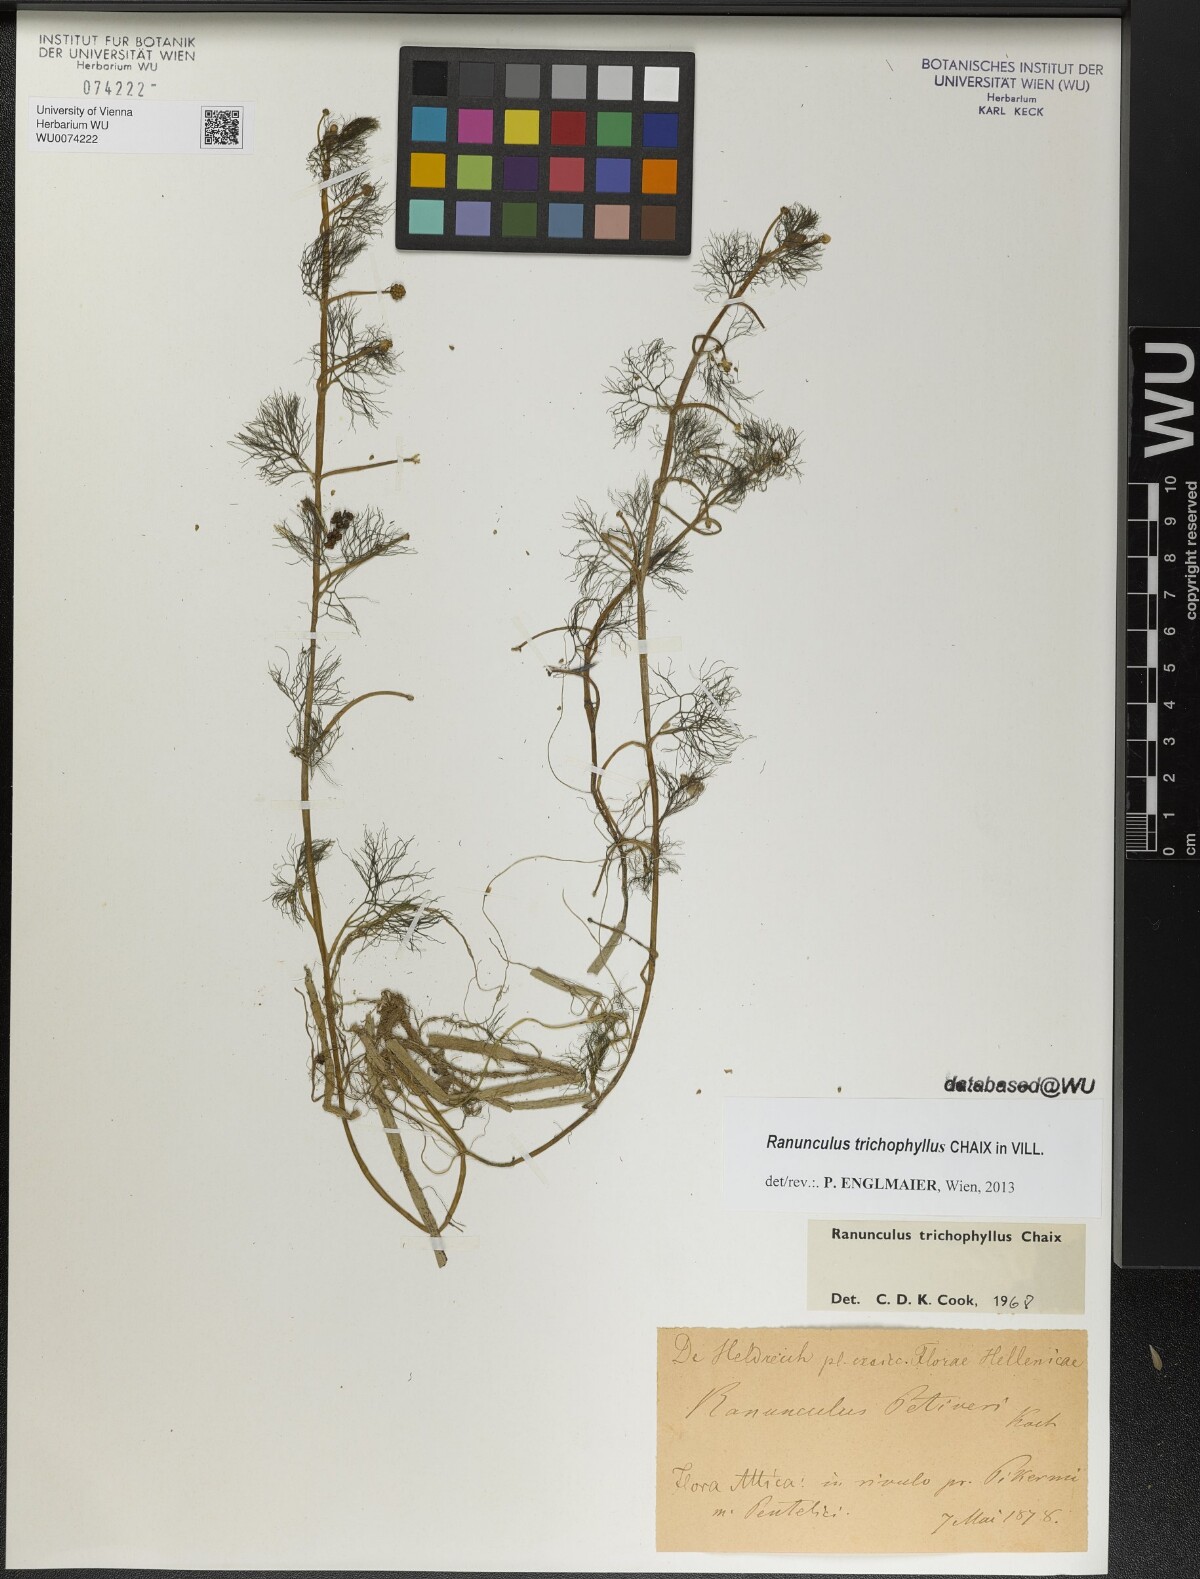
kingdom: Plantae
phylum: Tracheophyta
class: Magnoliopsida
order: Ranunculales
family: Ranunculaceae
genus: Ranunculus
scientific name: Ranunculus trichophyllus
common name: Thread-leaved water-crowfoot
